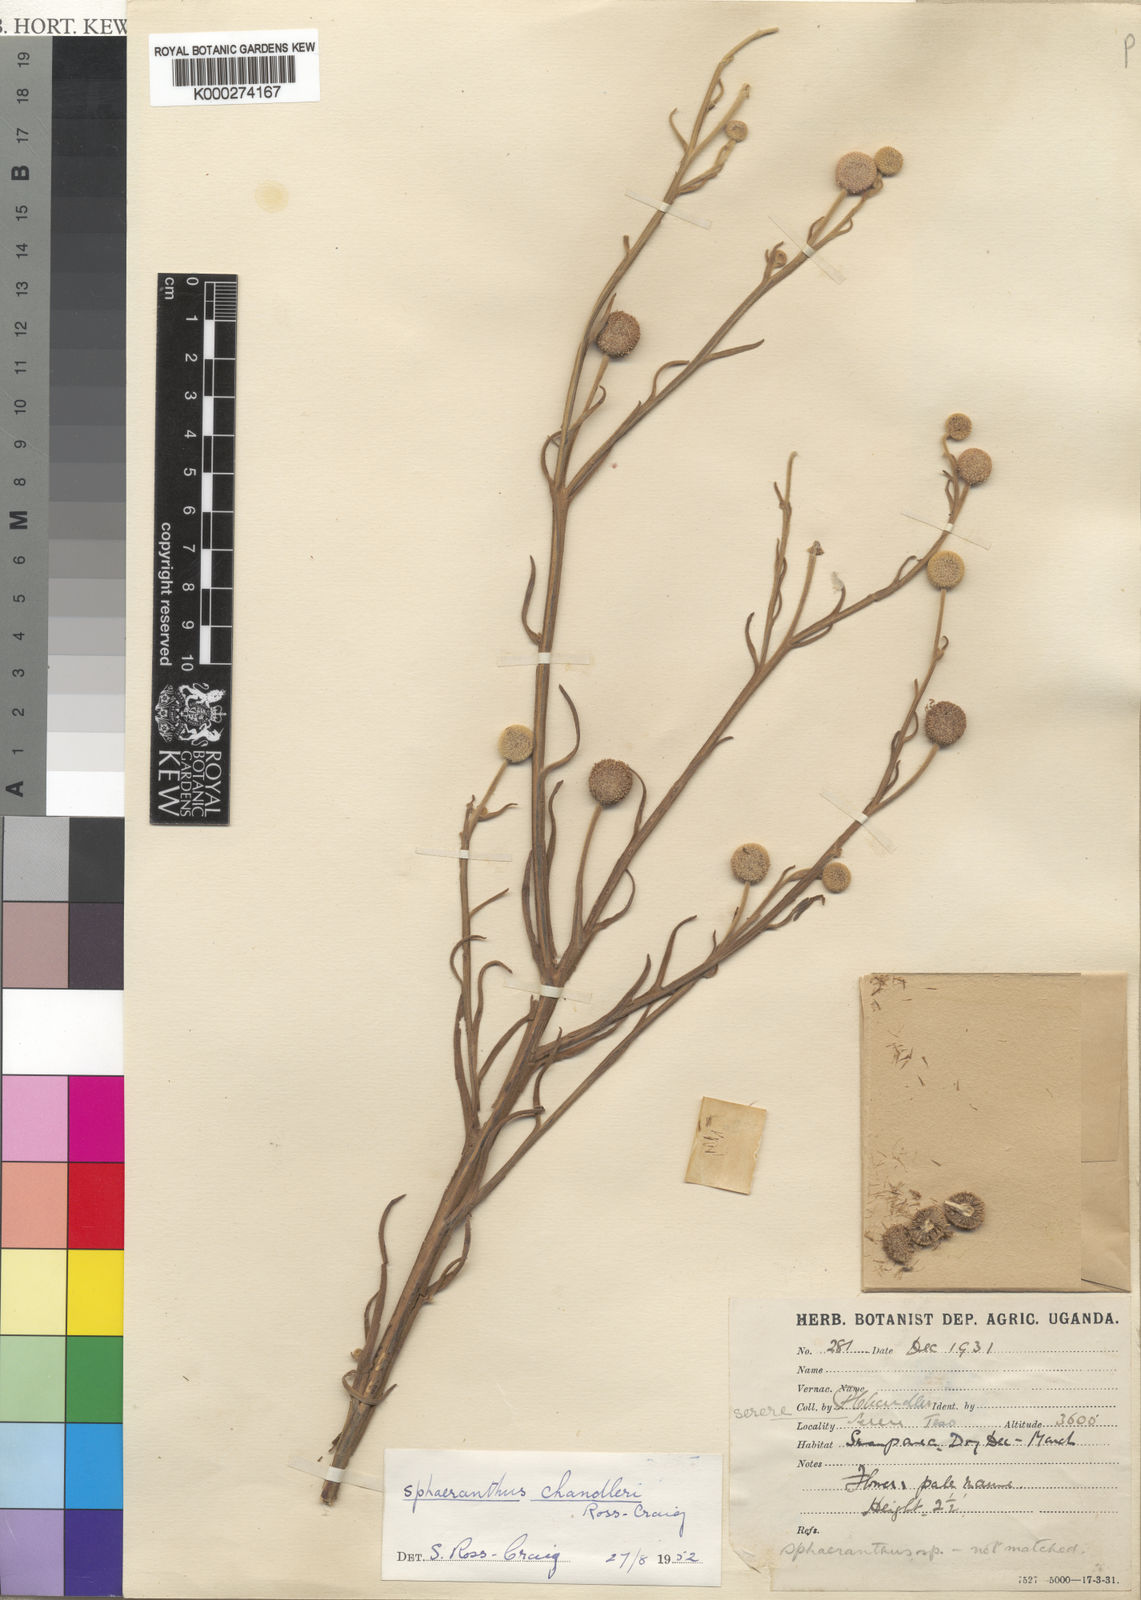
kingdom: Plantae
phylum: Tracheophyta
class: Magnoliopsida
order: Asterales
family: Asteraceae
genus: Sphaeranthus
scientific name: Sphaeranthus chandleri
